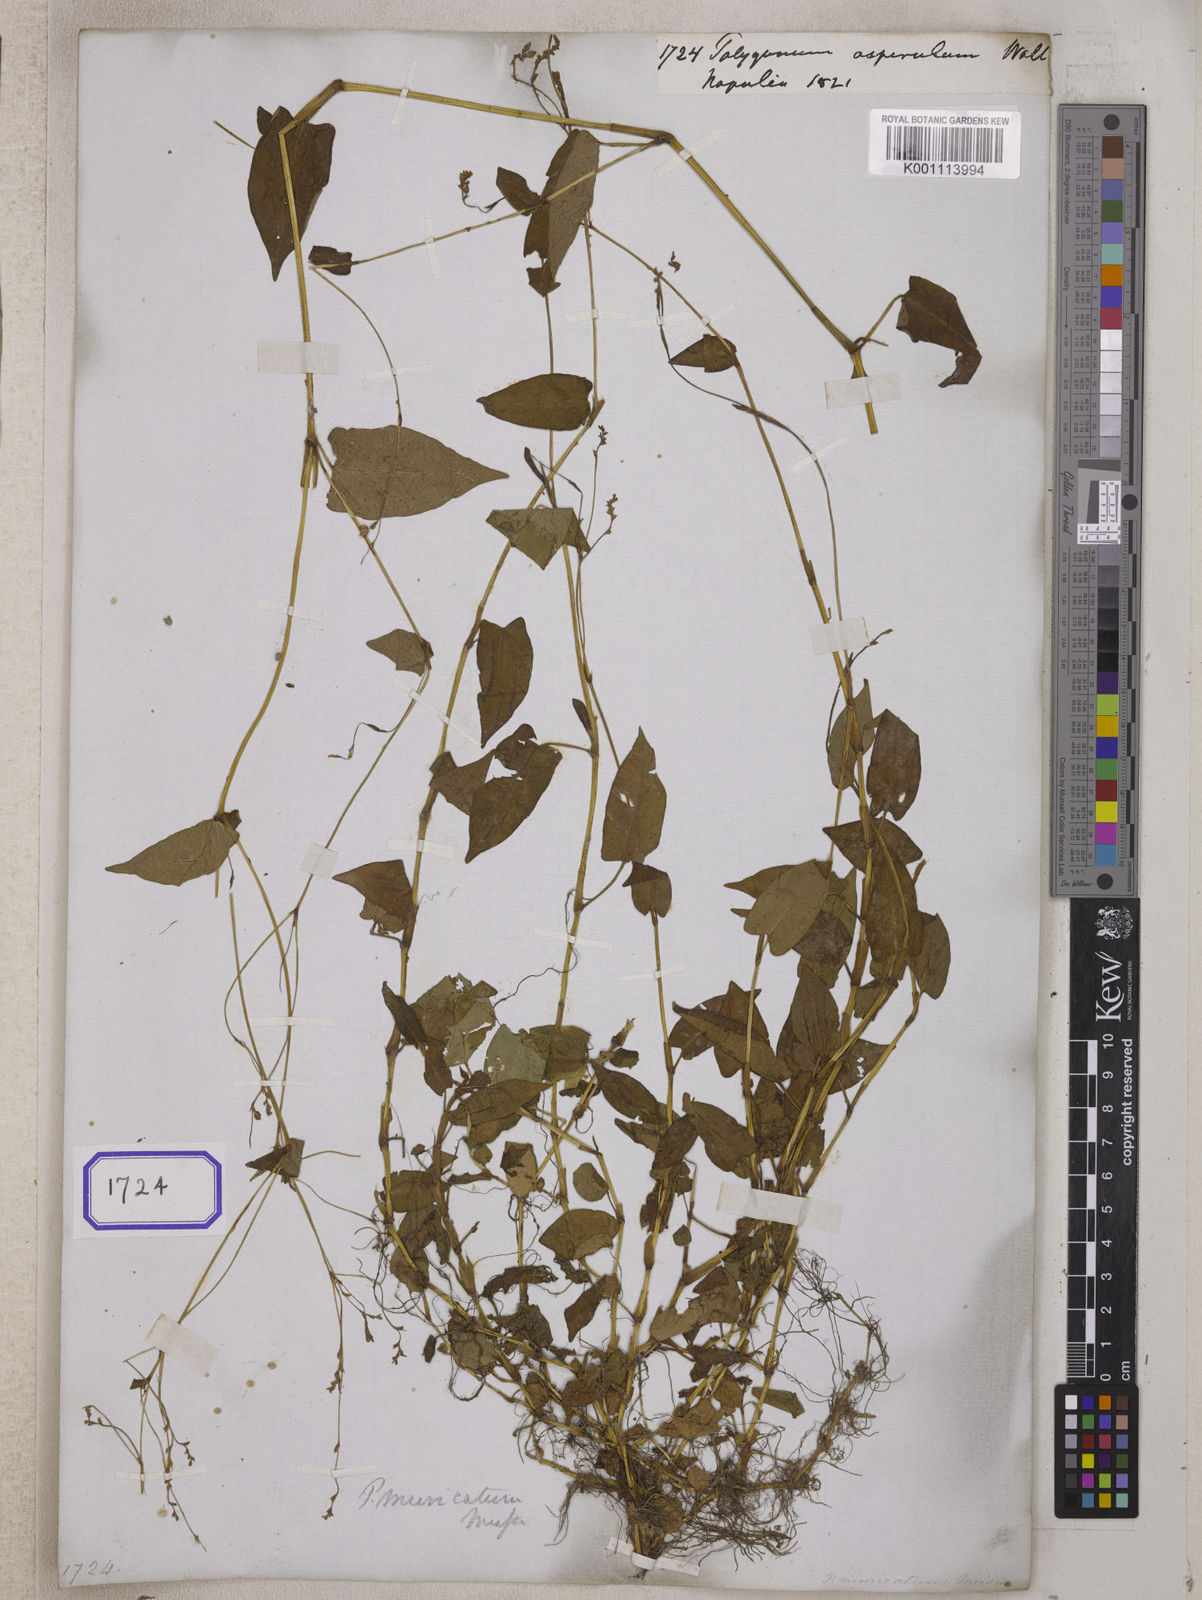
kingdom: Plantae
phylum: Tracheophyta
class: Magnoliopsida
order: Caryophyllales
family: Polygonaceae
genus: Persicaria
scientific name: Persicaria muricata
